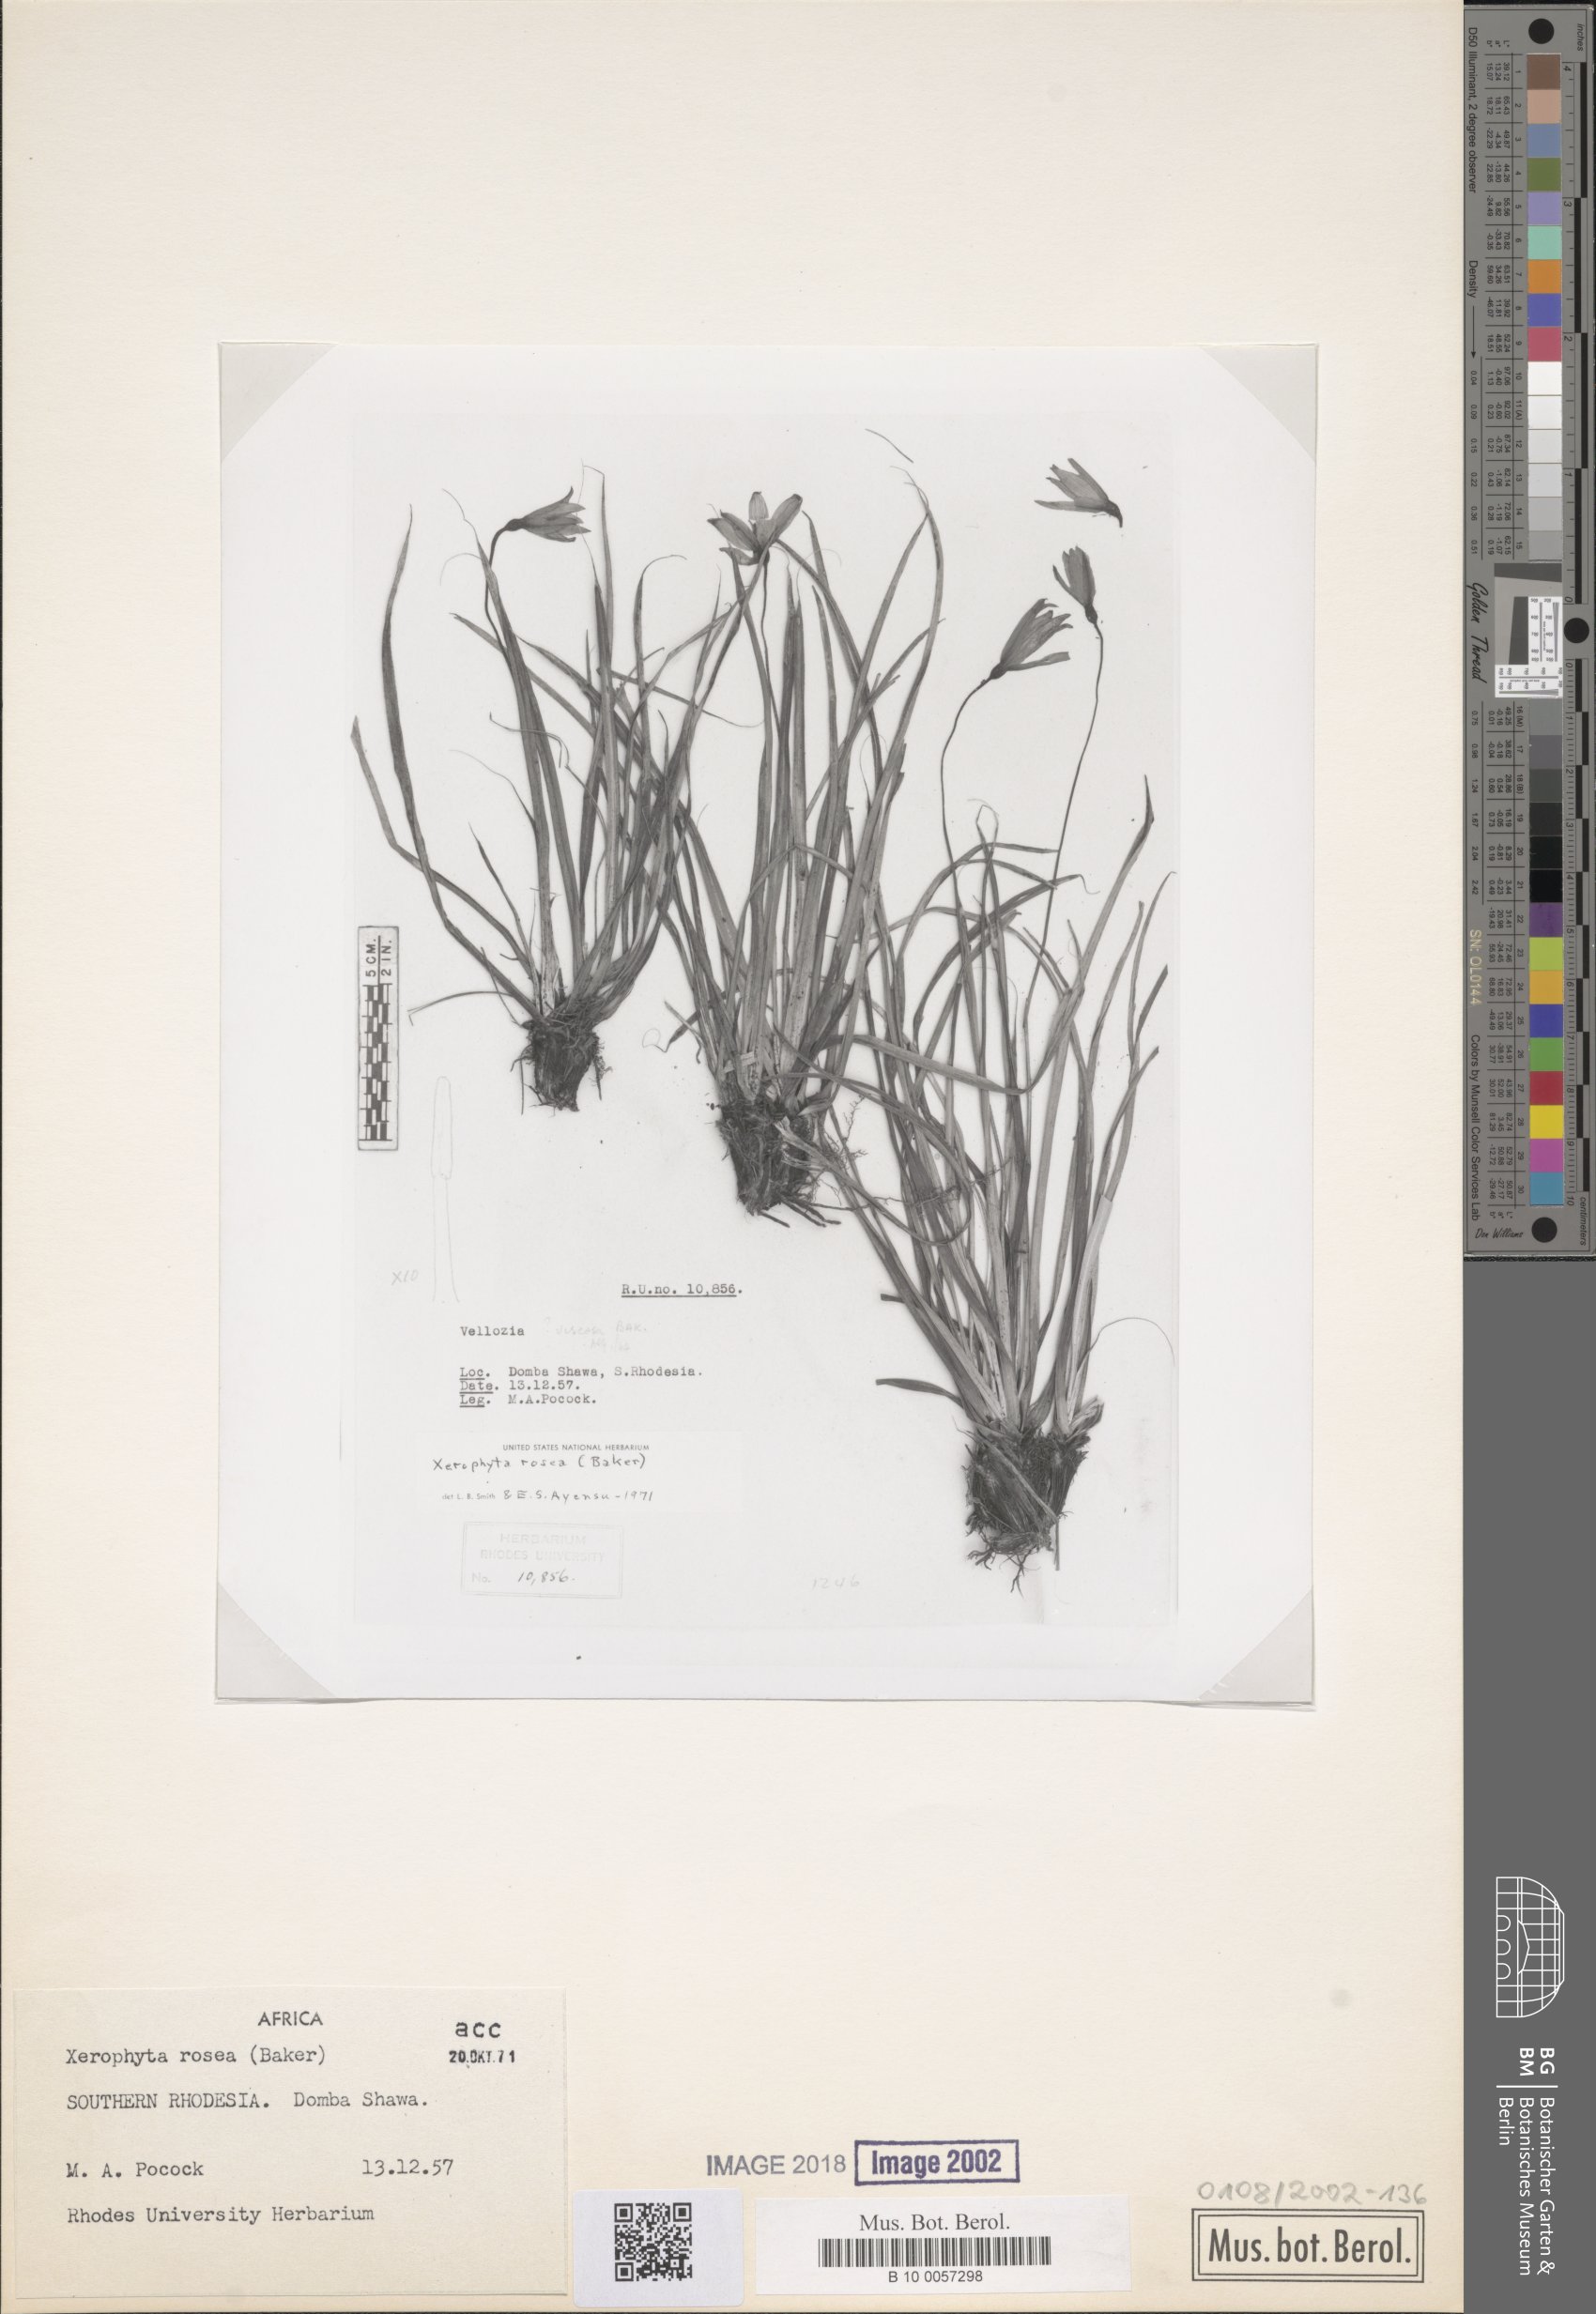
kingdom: Plantae
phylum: Tracheophyta
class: Liliopsida
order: Pandanales
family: Velloziaceae
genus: Xerophyta
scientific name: Xerophyta rosea
